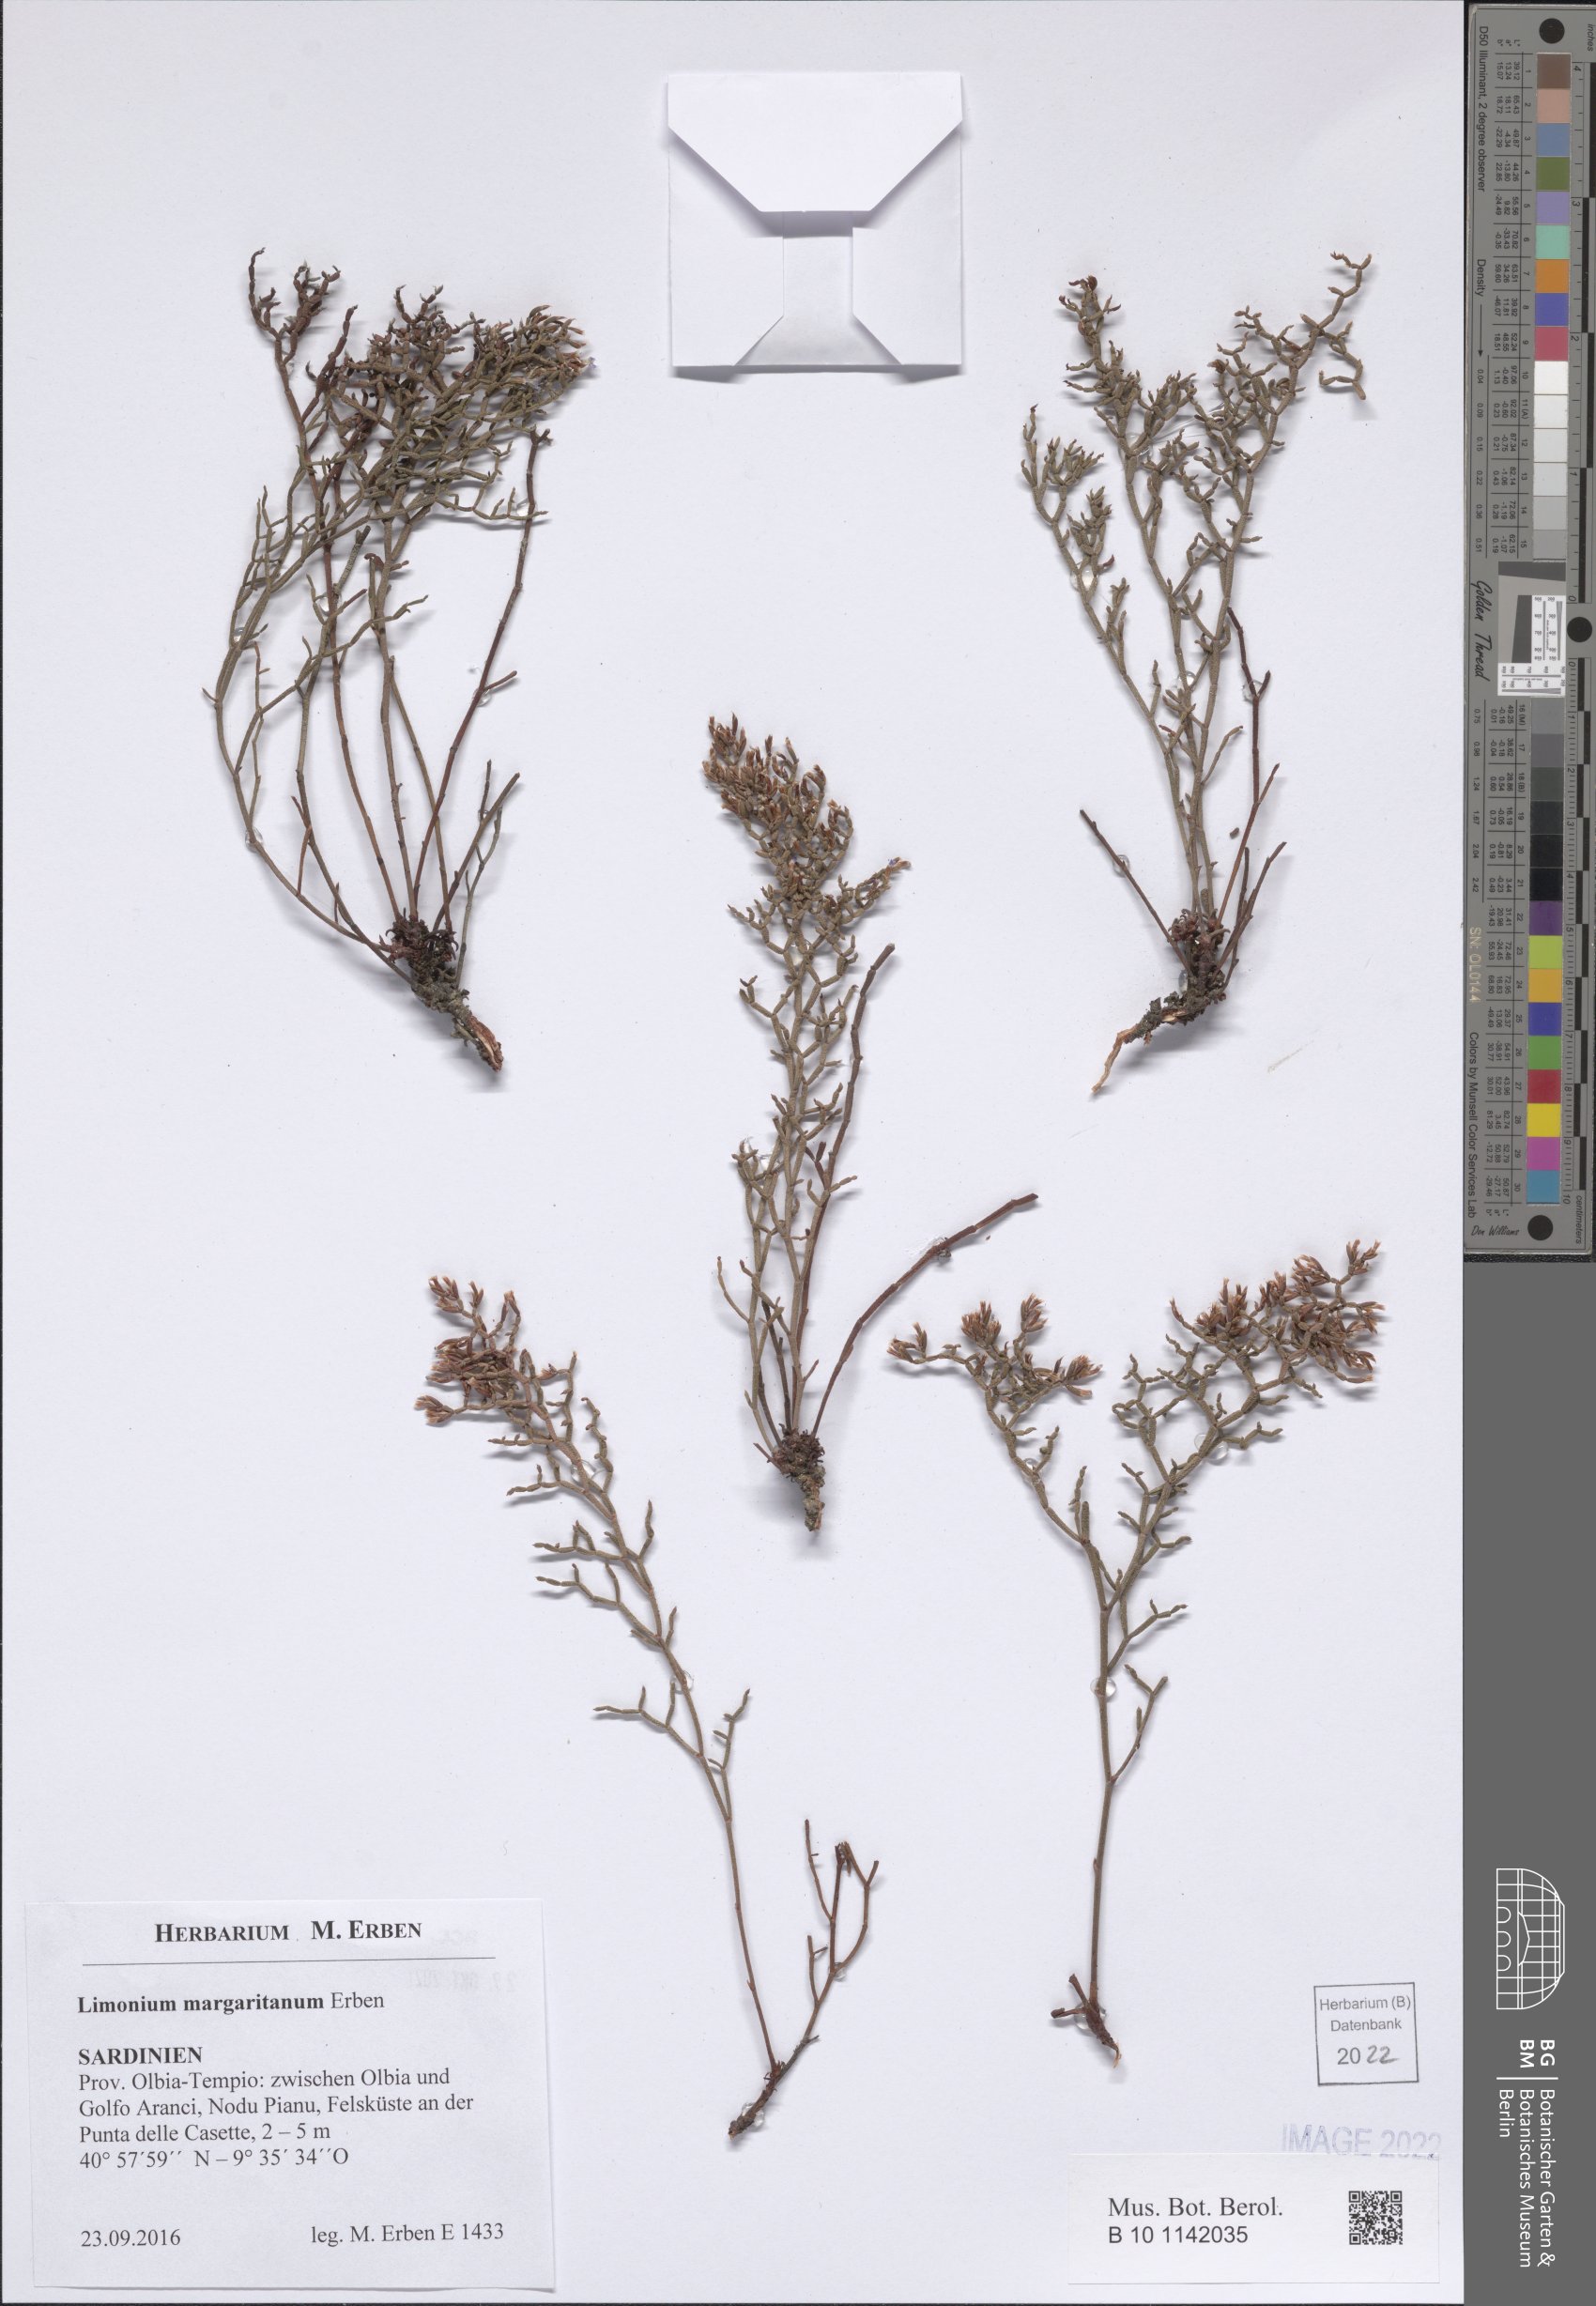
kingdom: Plantae
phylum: Tracheophyta
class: Magnoliopsida
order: Caryophyllales
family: Plumbaginaceae
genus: Limonium
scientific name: Limonium
